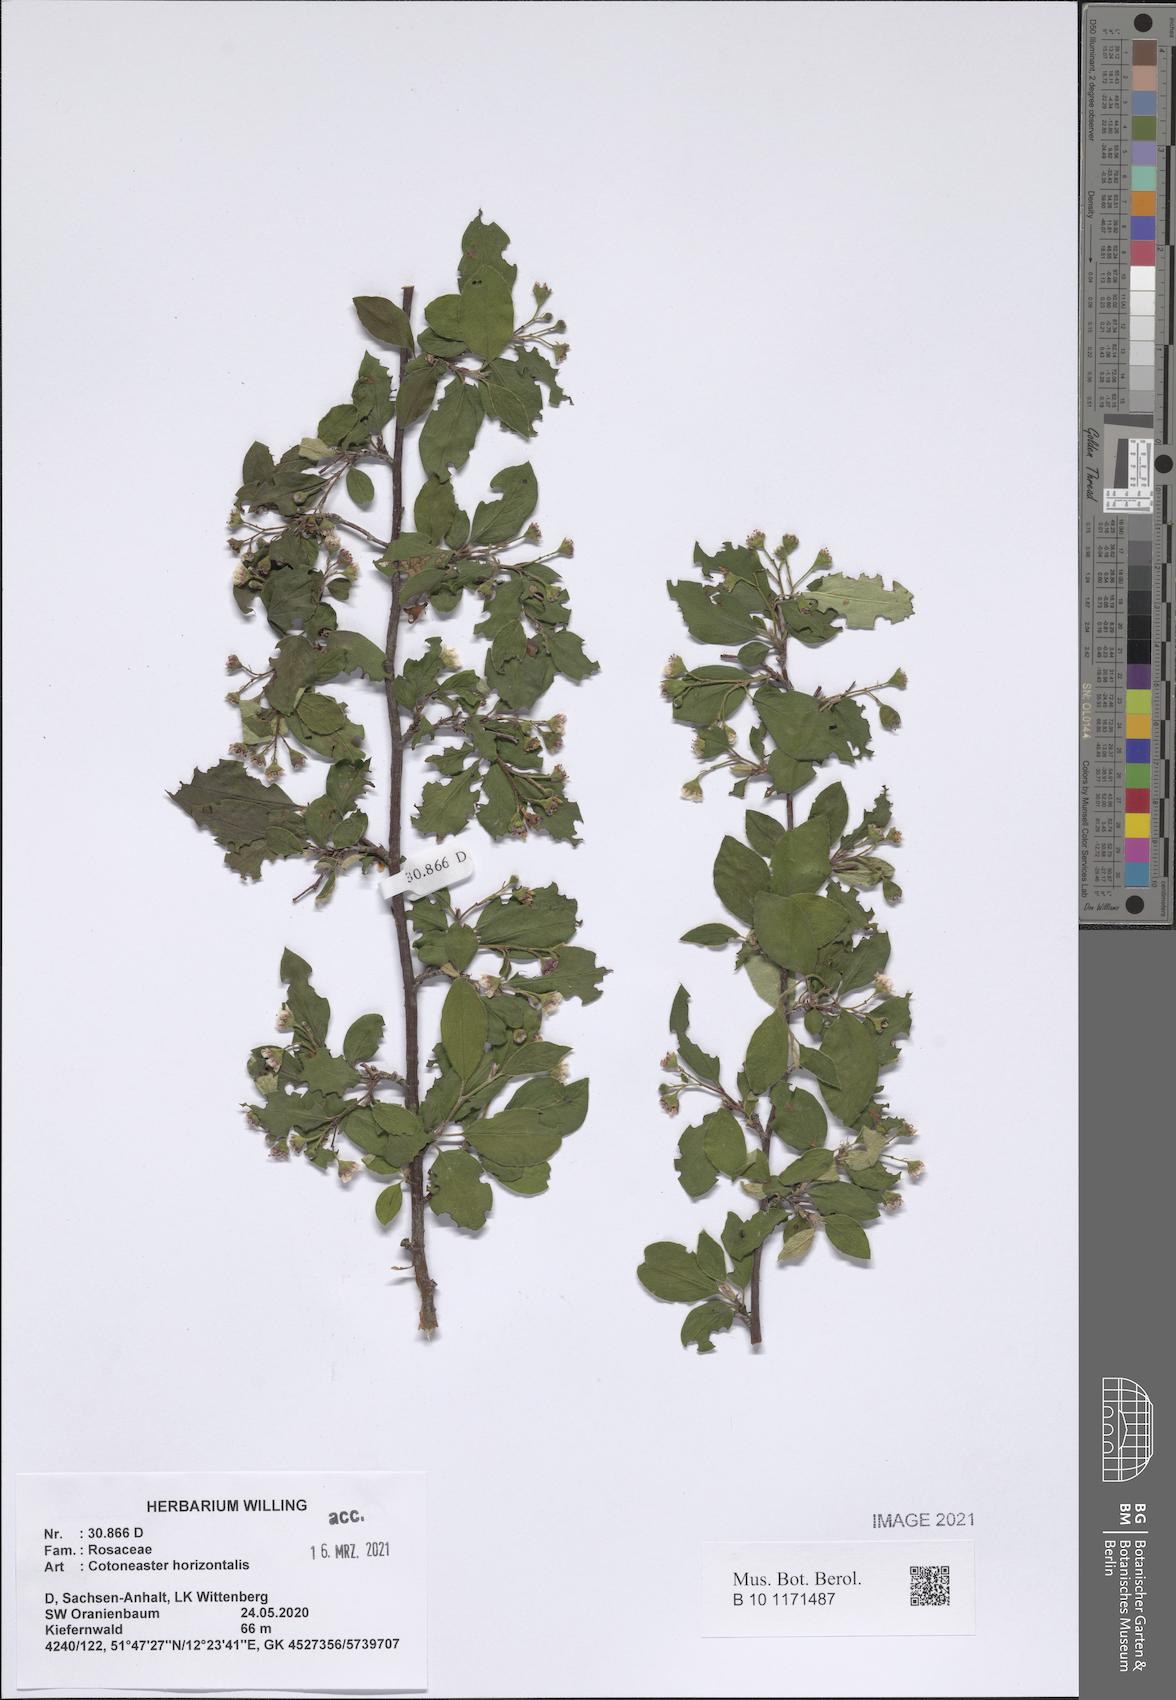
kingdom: Plantae
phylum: Tracheophyta
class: Magnoliopsida
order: Rosales
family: Rosaceae
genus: Cotoneaster
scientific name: Cotoneaster horizontalis
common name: Wall cotoneaster
